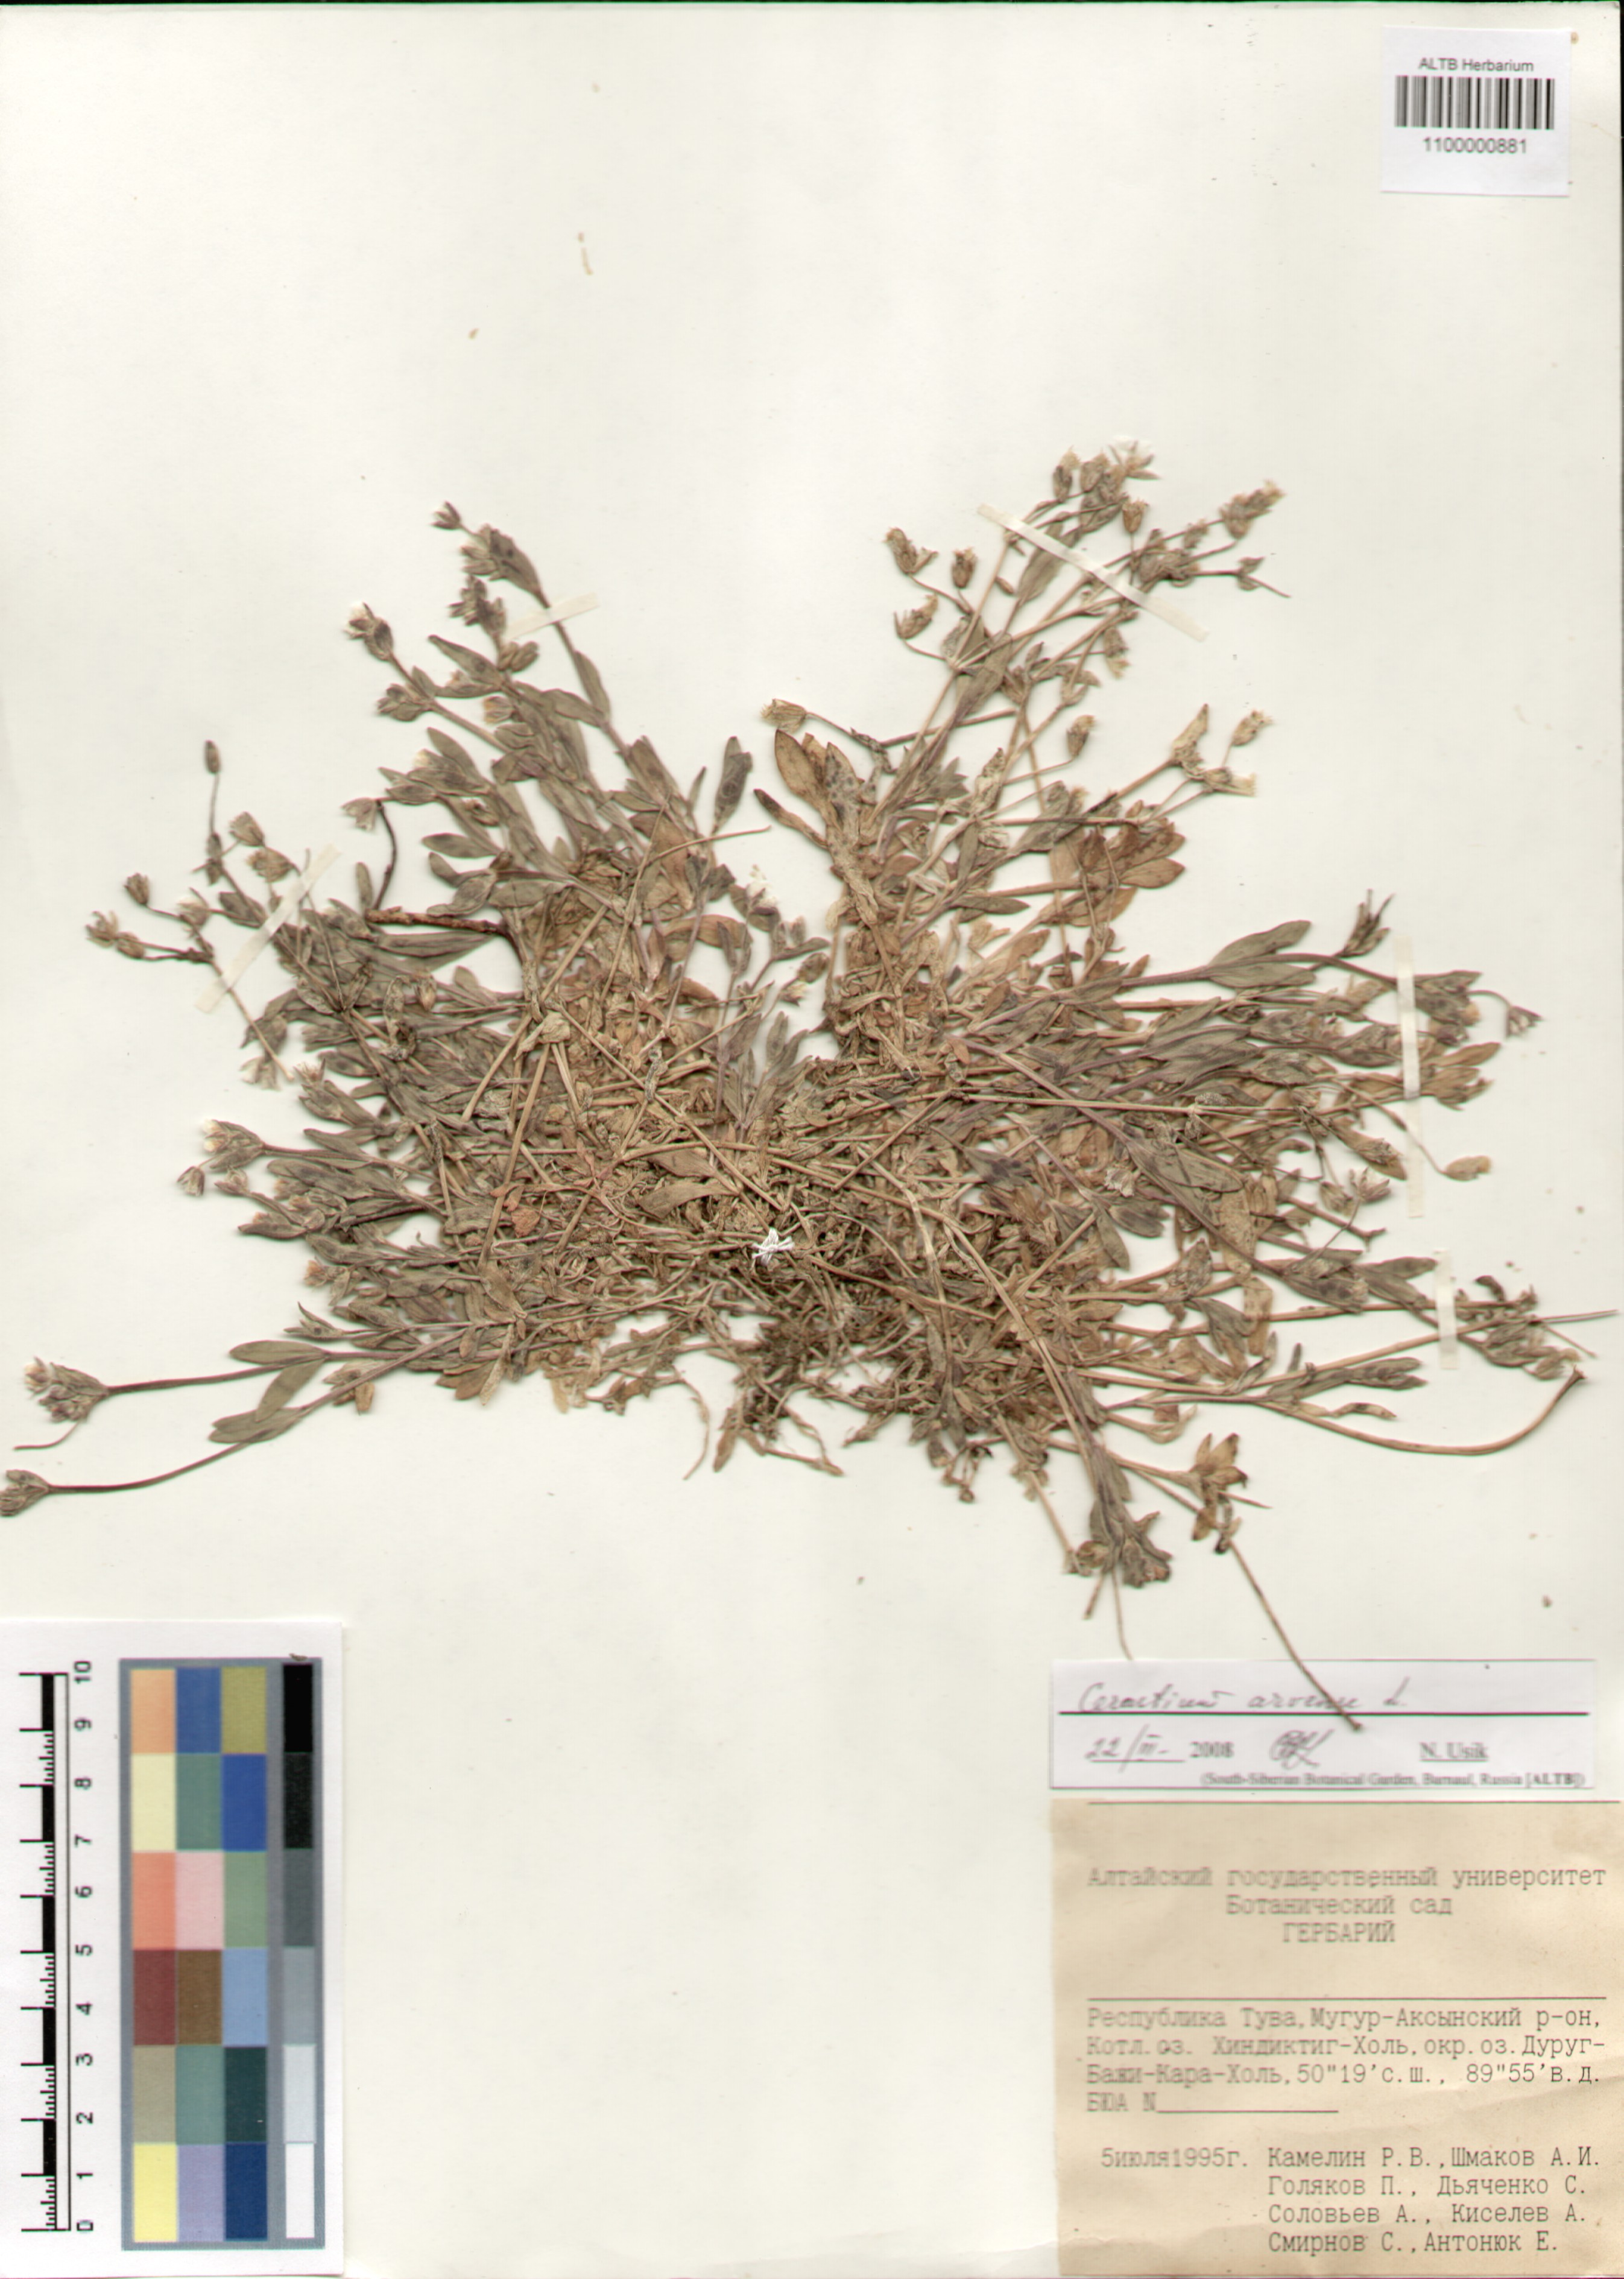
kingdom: Plantae
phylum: Tracheophyta
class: Magnoliopsida
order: Caryophyllales
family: Caryophyllaceae
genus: Cerastium
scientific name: Cerastium arvense
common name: Field mouse-ear
